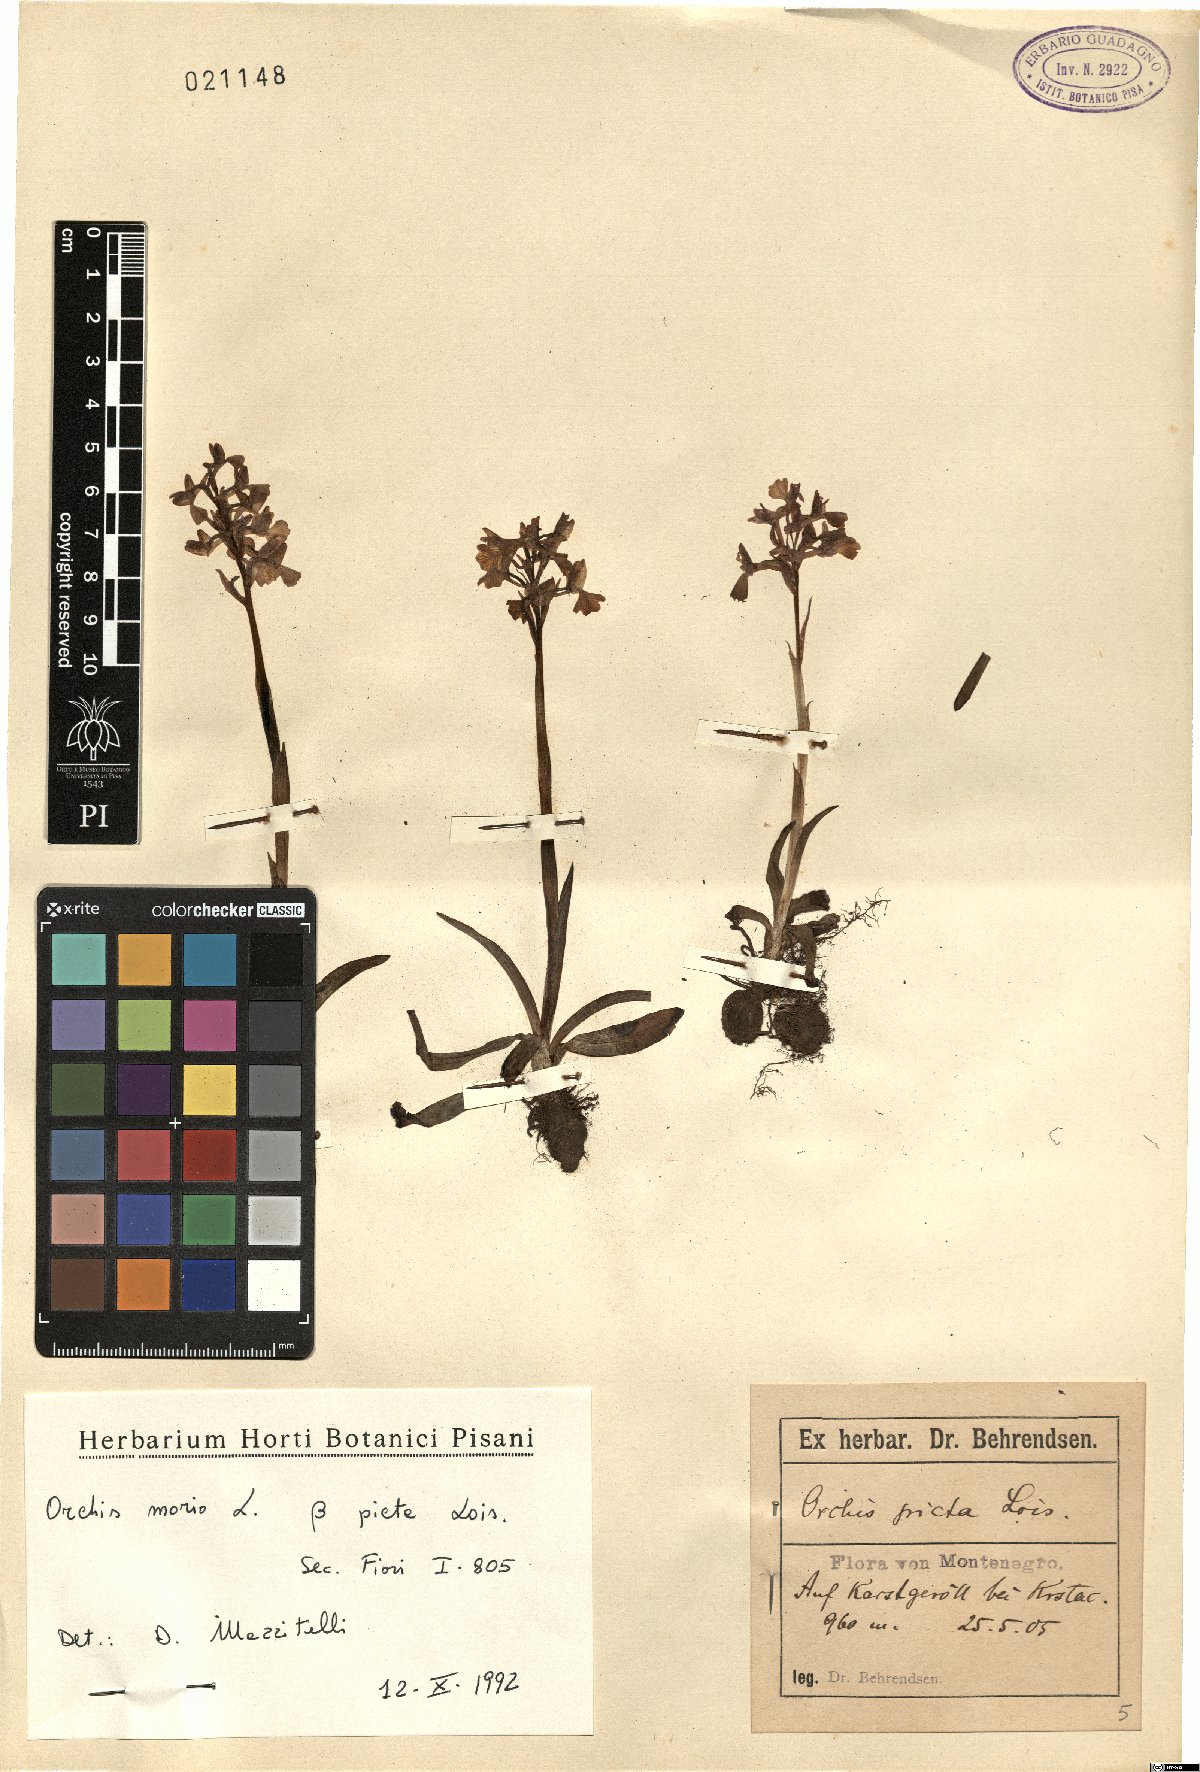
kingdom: Plantae
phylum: Tracheophyta
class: Liliopsida
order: Asparagales
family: Orchidaceae
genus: Anacamptis
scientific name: Anacamptis morio
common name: Green-winged orchid
